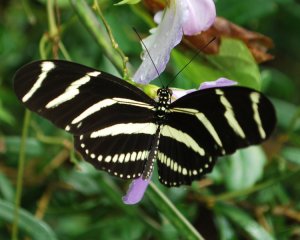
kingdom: Animalia
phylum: Arthropoda
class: Insecta
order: Lepidoptera
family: Nymphalidae
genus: Heliconius
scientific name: Heliconius charithonia
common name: Zebra Longwing
